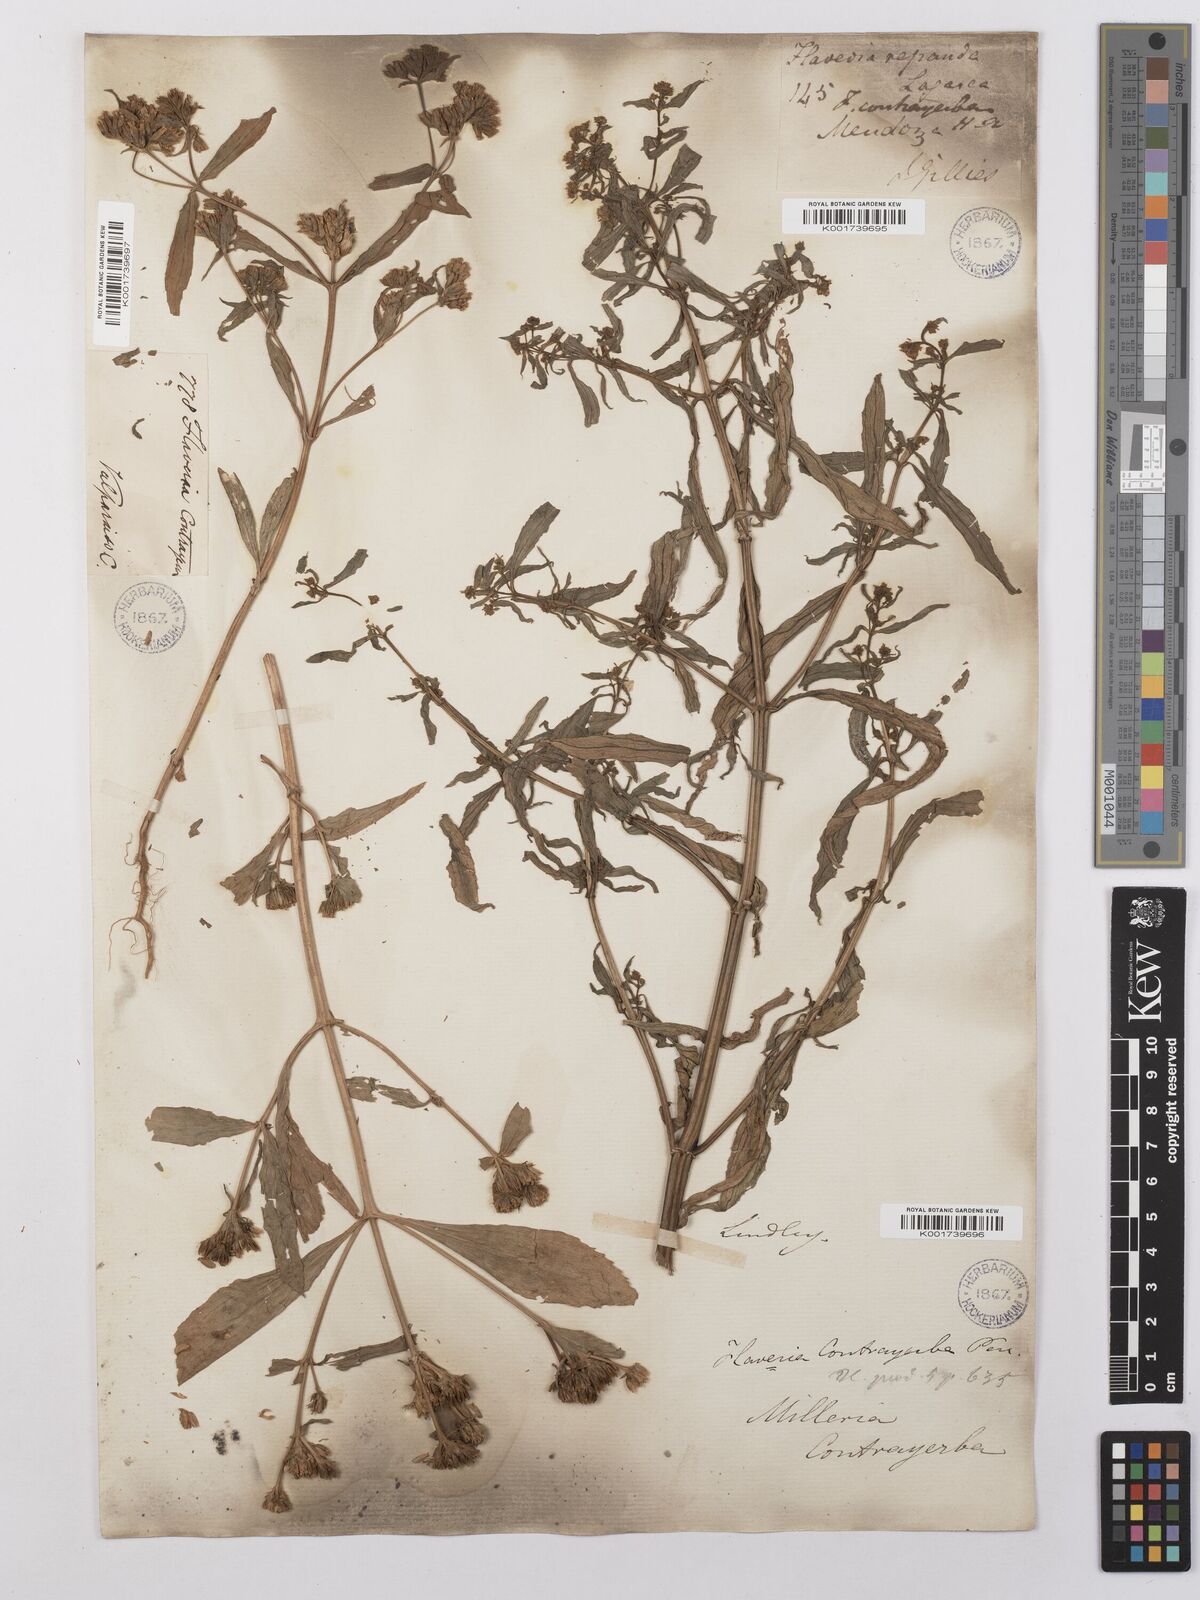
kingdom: Plantae
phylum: Tracheophyta
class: Magnoliopsida
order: Asterales
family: Asteraceae
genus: Flaveria
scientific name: Flaveria bidentis
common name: Coastal plain yellowtops
